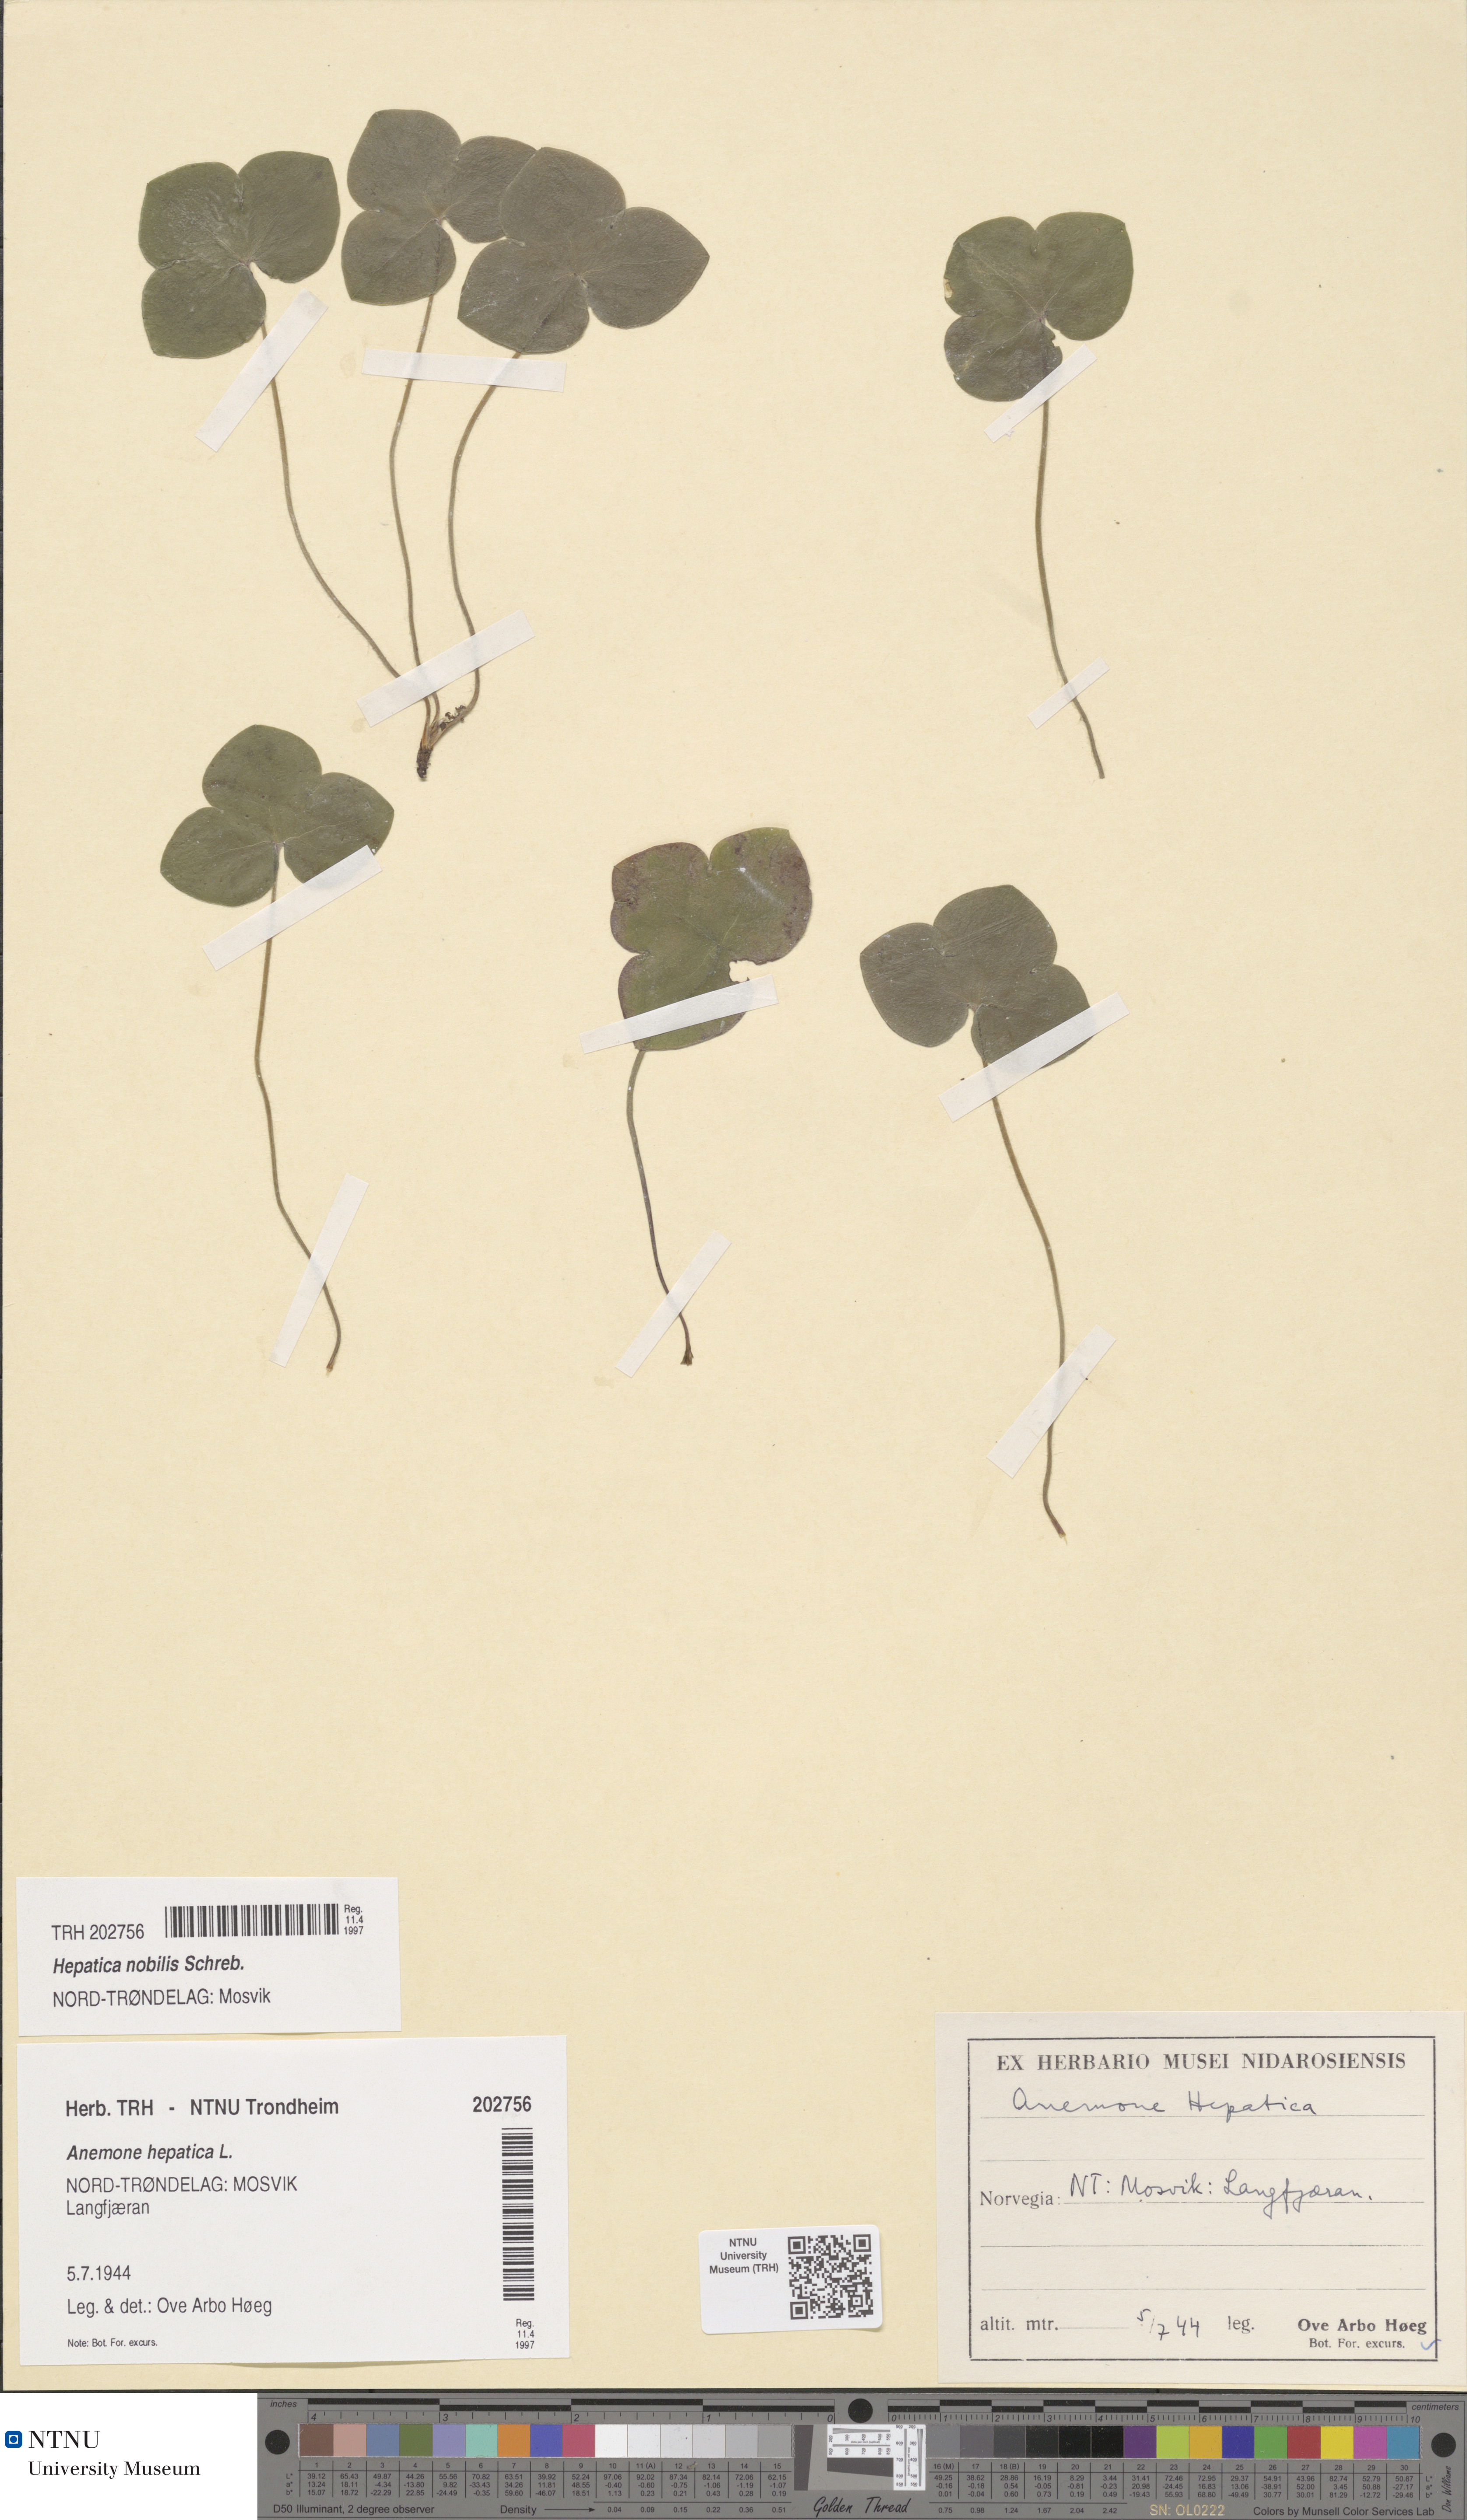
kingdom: Plantae
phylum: Tracheophyta
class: Magnoliopsida
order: Ranunculales
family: Ranunculaceae
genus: Hepatica
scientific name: Hepatica nobilis
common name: Liverleaf
